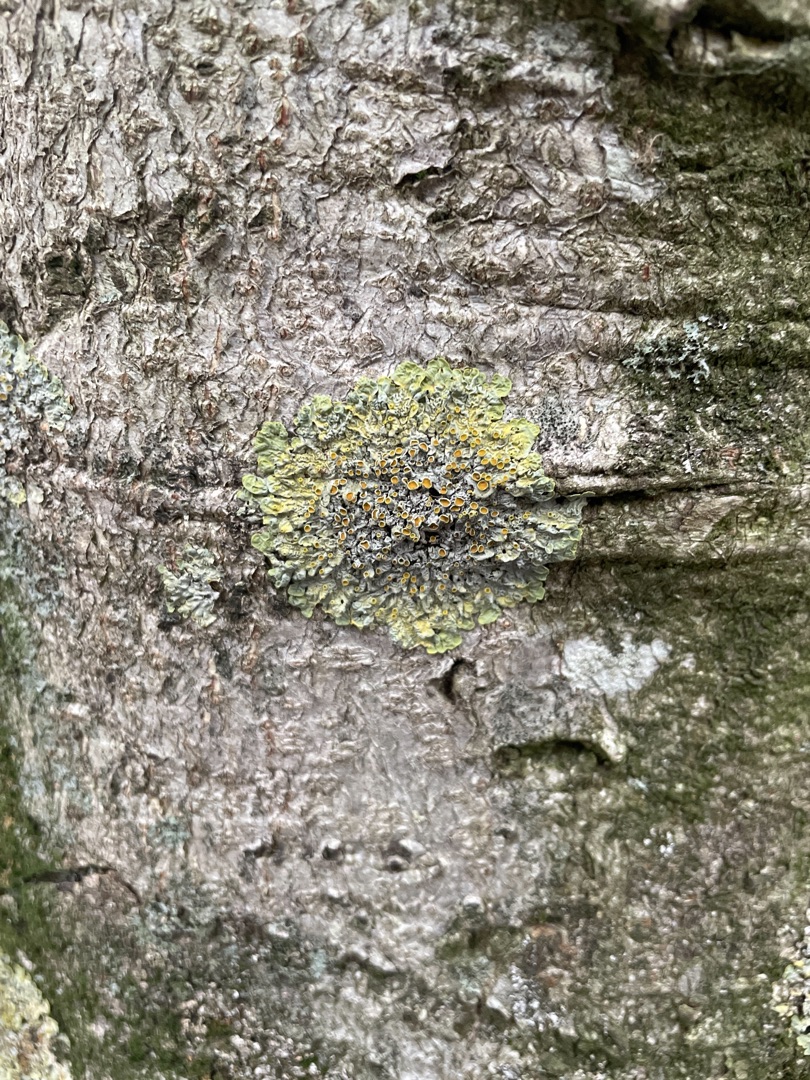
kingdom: Fungi
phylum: Ascomycota
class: Lecanoromycetes
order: Teloschistales
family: Teloschistaceae
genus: Xanthoria
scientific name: Xanthoria parietina
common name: Almindelig væggelav
